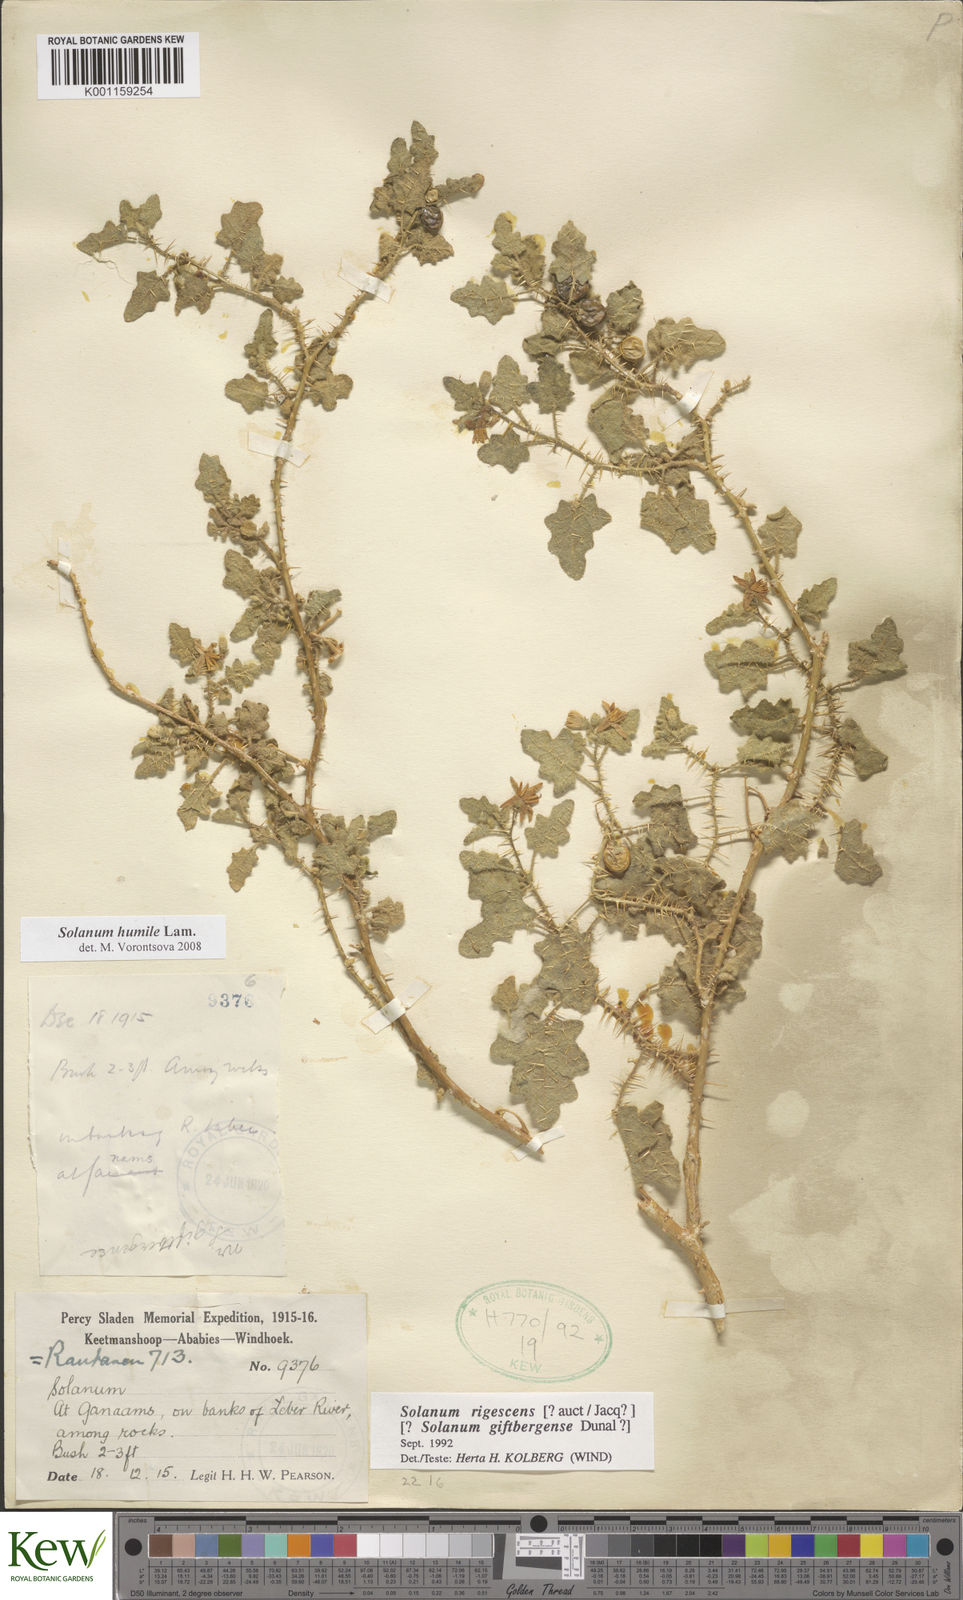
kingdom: Plantae
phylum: Tracheophyta
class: Magnoliopsida
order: Solanales
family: Solanaceae
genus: Solanum
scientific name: Solanum humile
